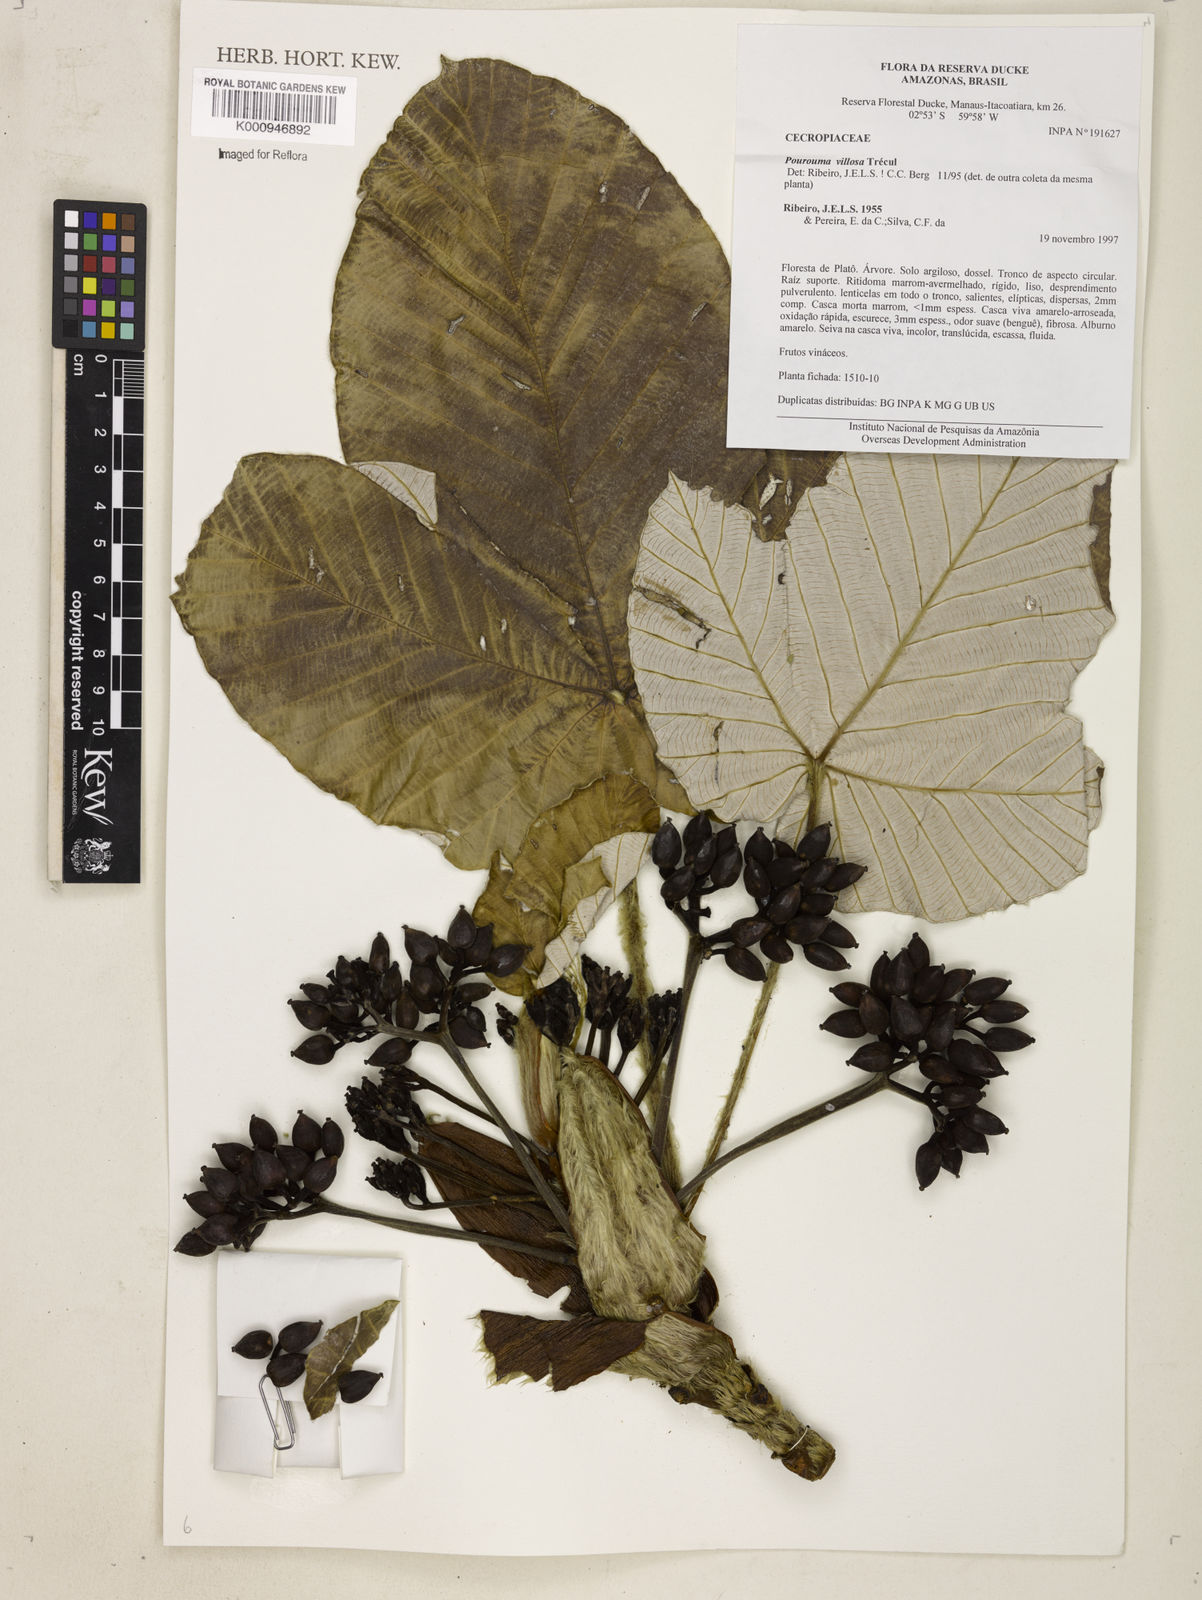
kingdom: Plantae
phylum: Tracheophyta
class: Magnoliopsida
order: Rosales
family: Urticaceae
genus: Pourouma
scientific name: Pourouma
